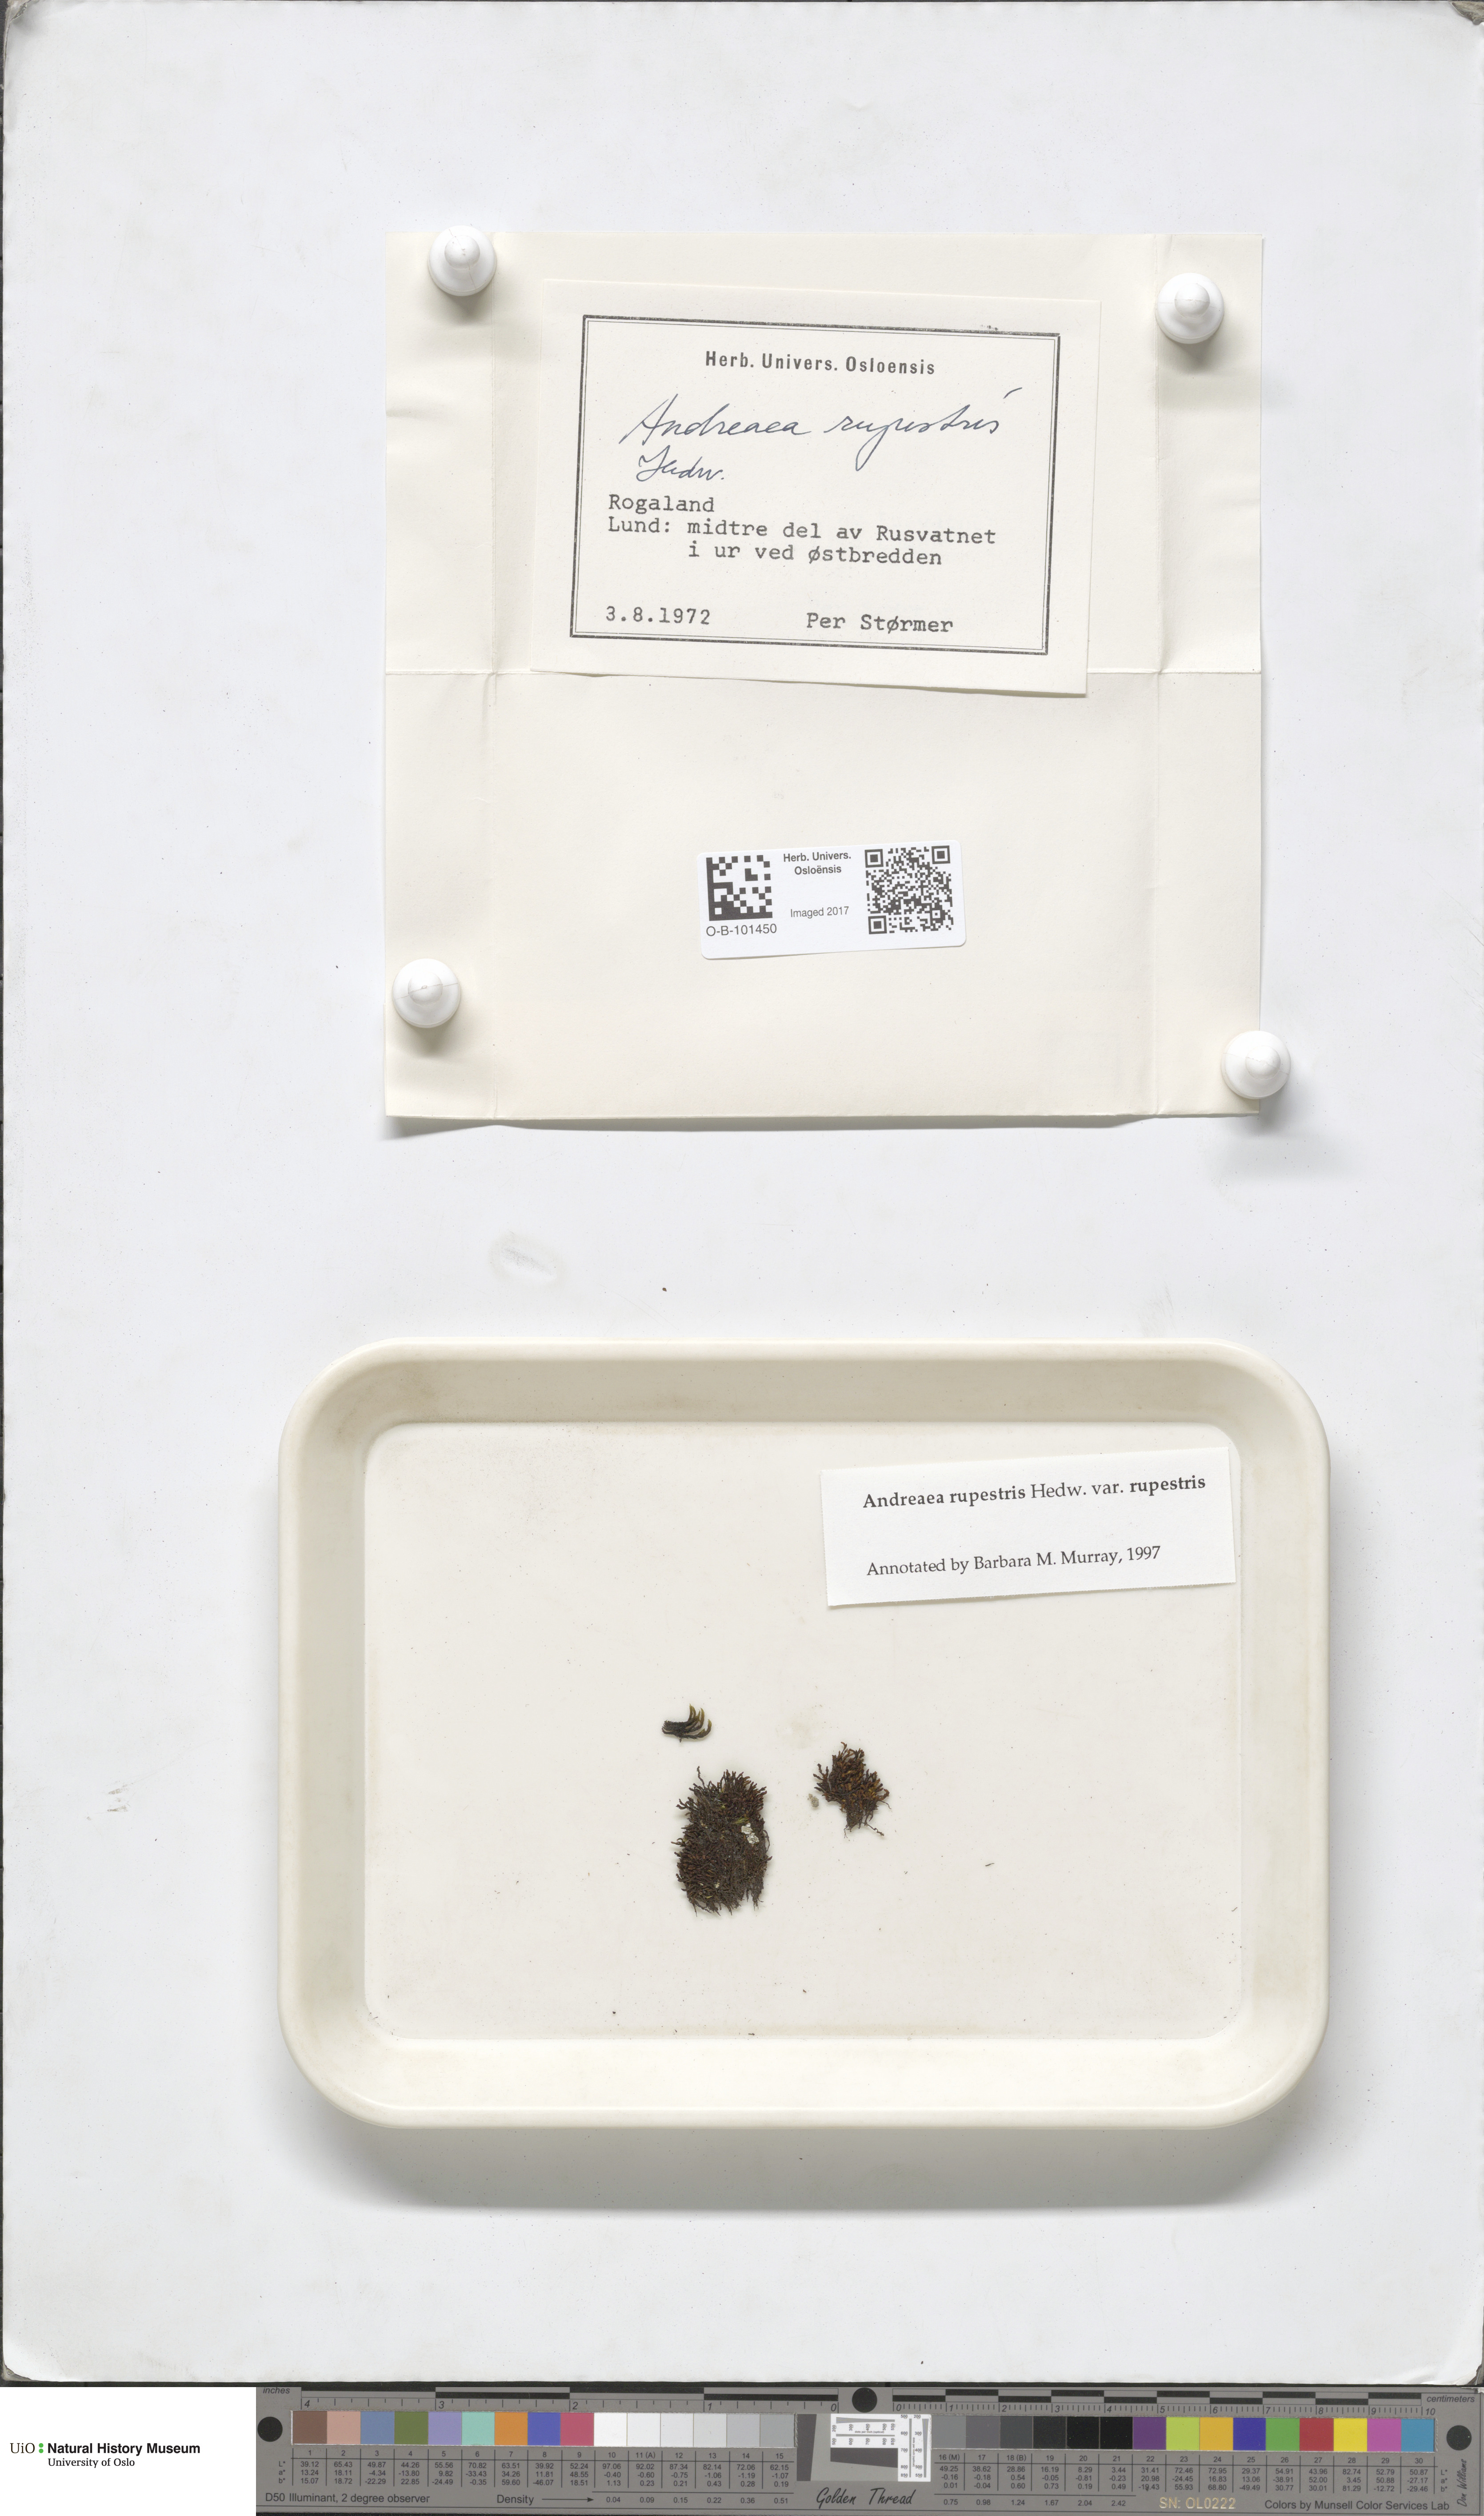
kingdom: Plantae
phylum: Bryophyta
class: Andreaeopsida
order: Andreaeales
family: Andreaeaceae
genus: Andreaea
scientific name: Andreaea rupestris
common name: Black rock moss
